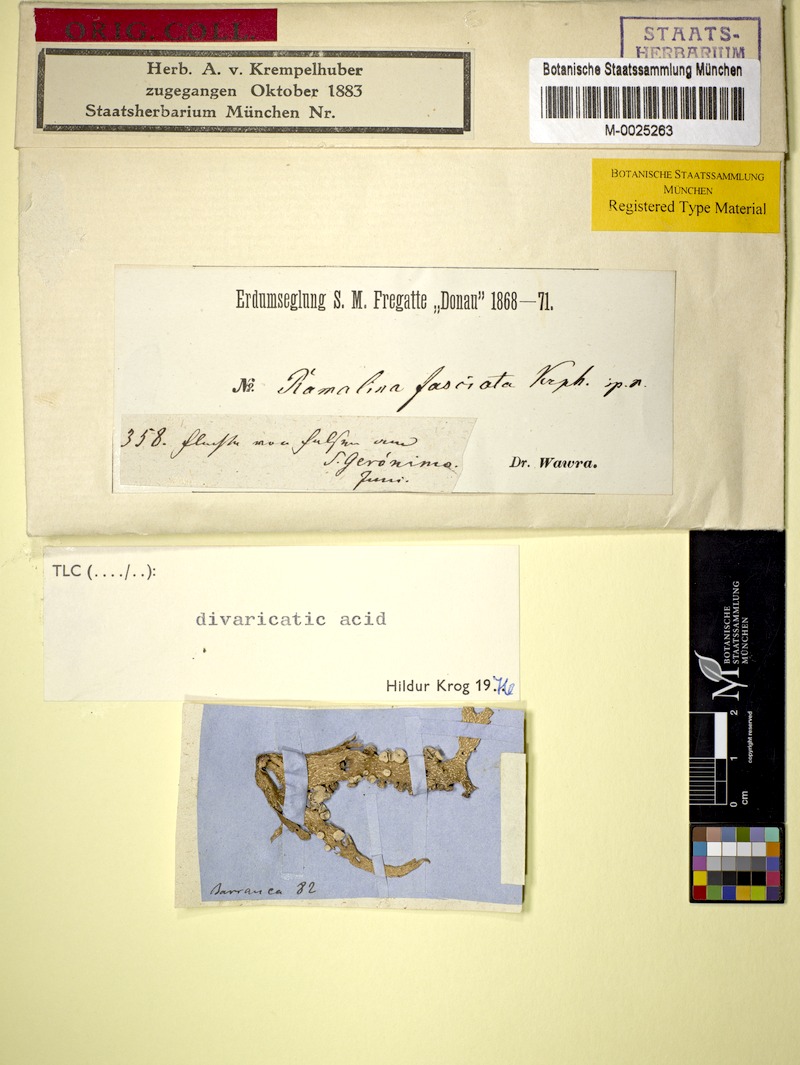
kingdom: Fungi
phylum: Ascomycota
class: Lecanoromycetes
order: Lecanorales
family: Ramalinaceae
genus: Ramalina
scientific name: Ramalina
